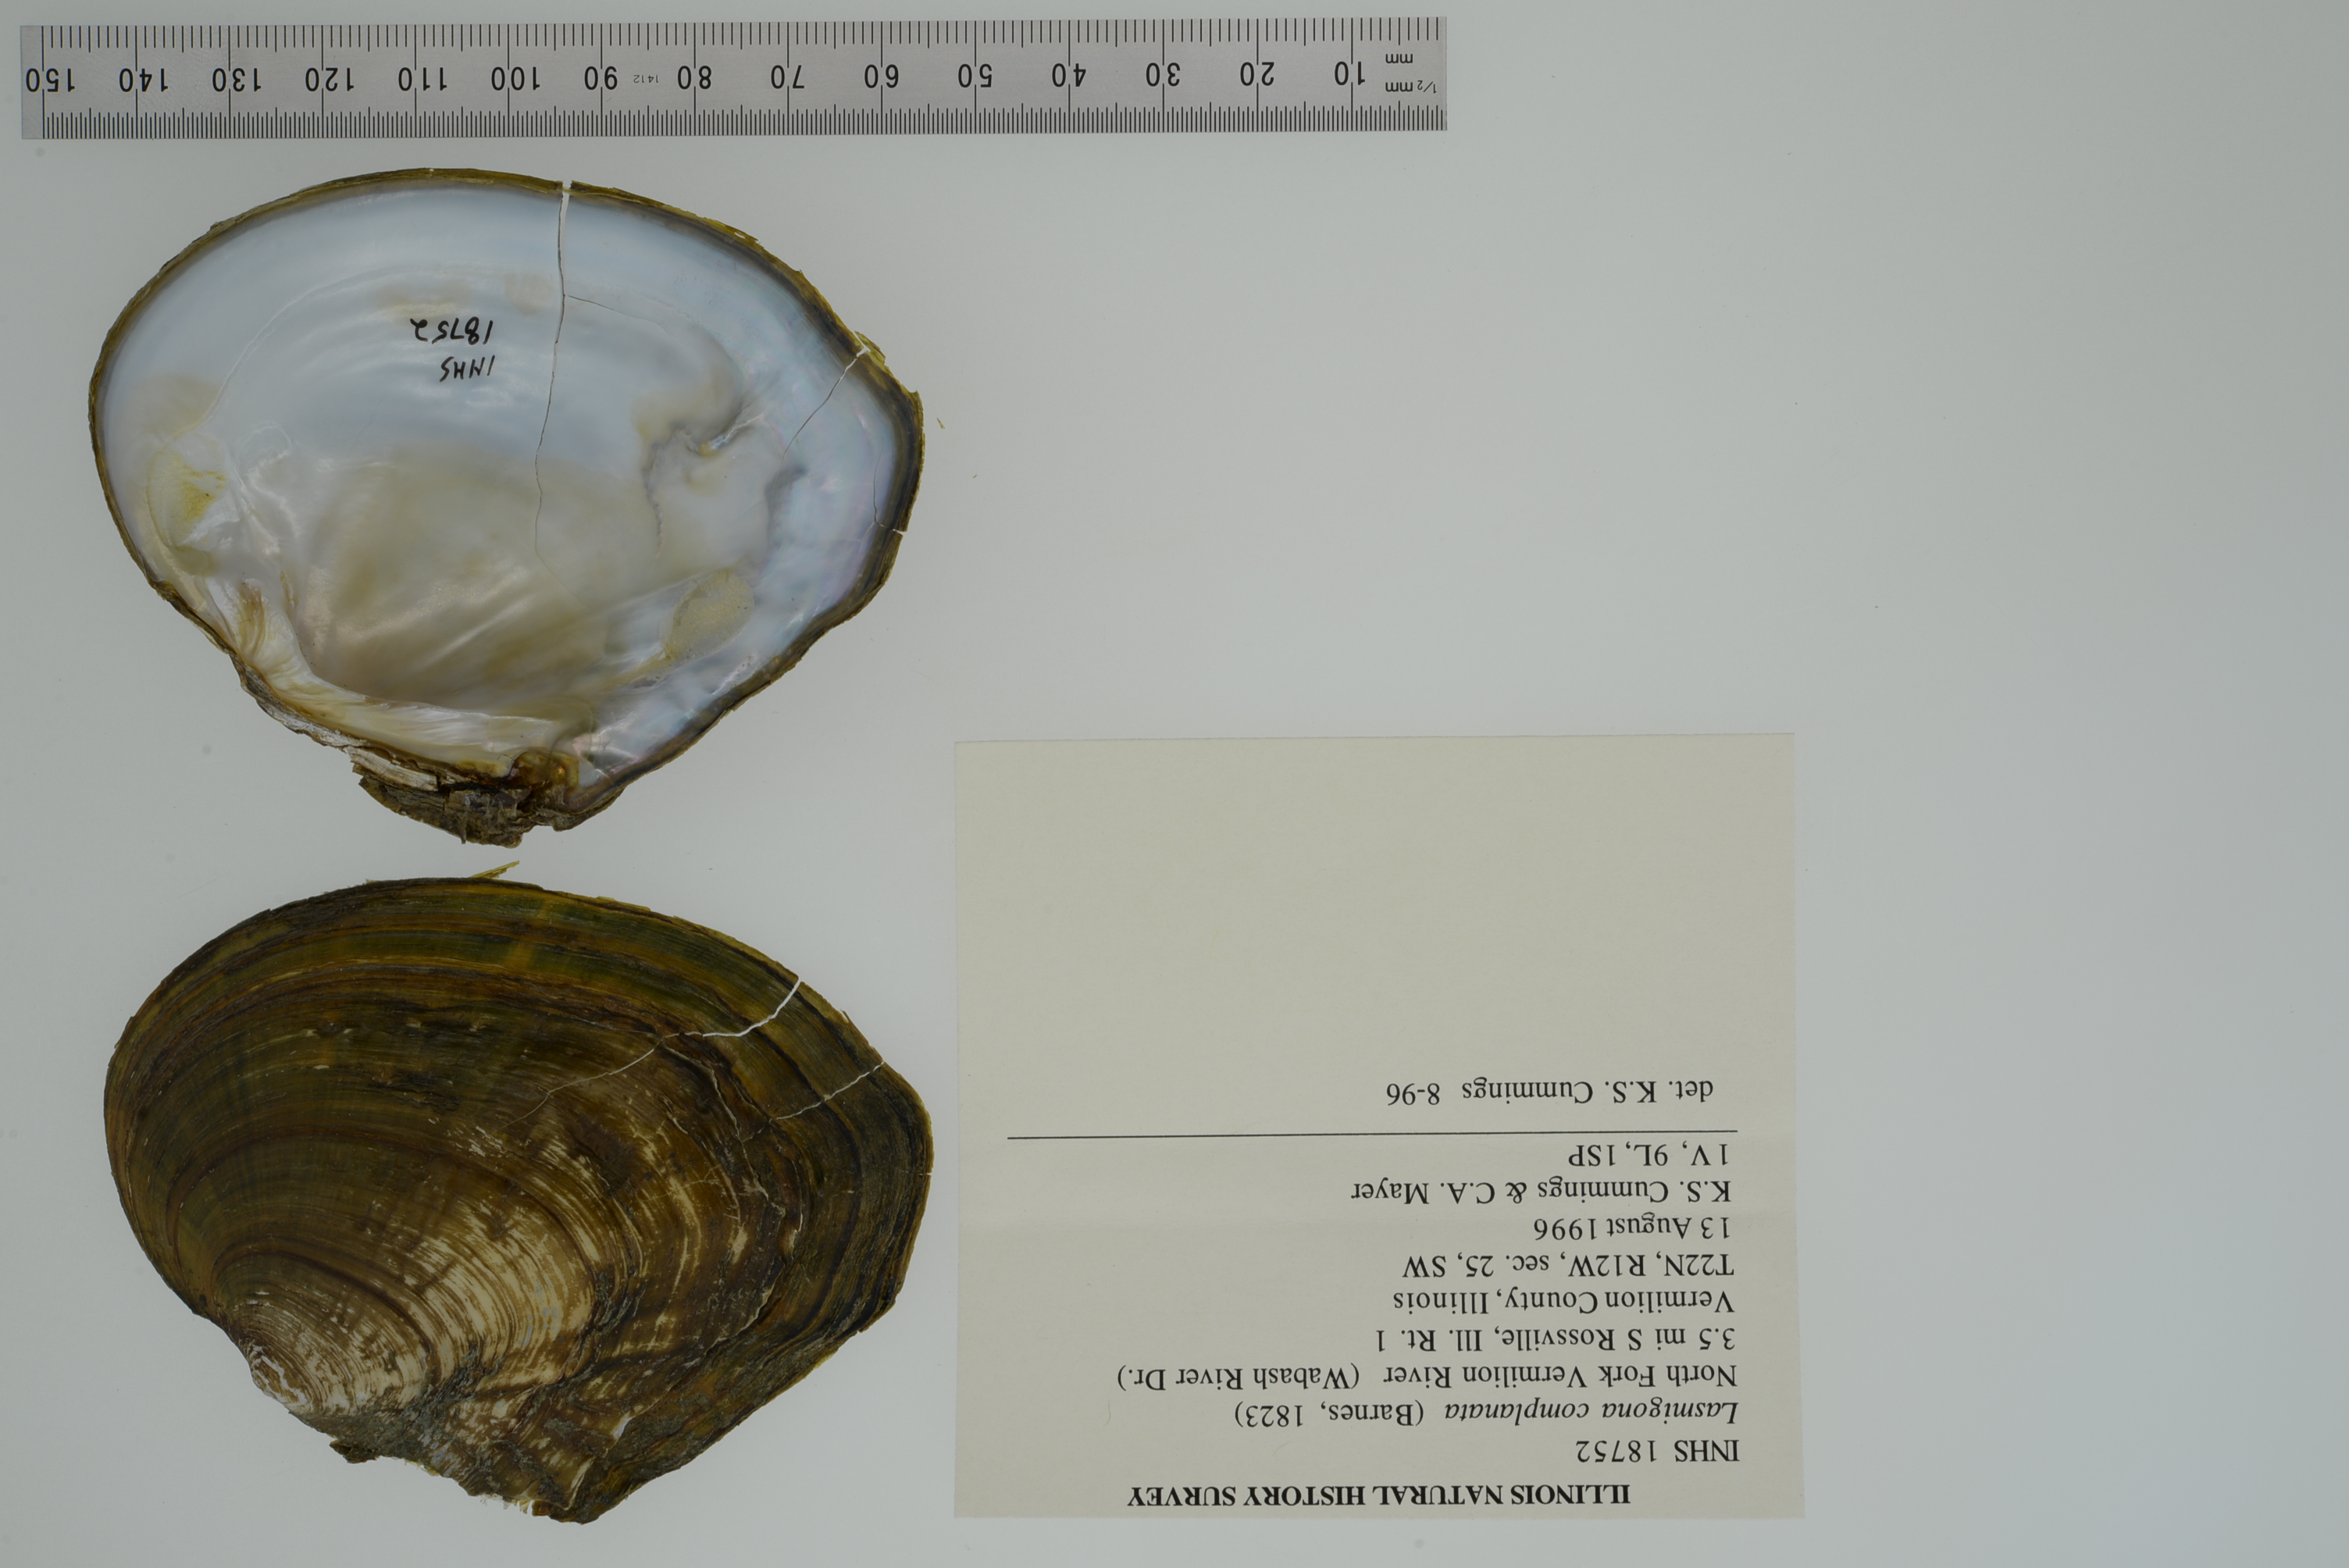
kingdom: Animalia
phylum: Mollusca
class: Bivalvia
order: Unionida
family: Unionidae
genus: Lasmigona
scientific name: Lasmigona complanata
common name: White heelsplitter
